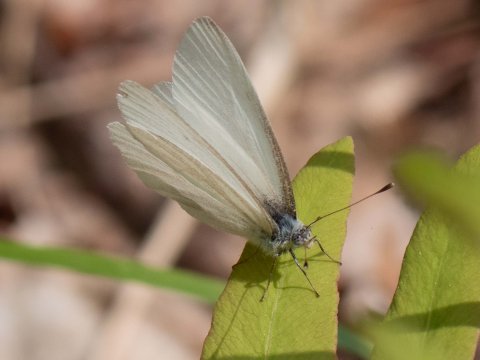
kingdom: Animalia
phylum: Arthropoda
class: Insecta
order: Lepidoptera
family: Pieridae
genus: Pieris
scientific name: Pieris virginiensis
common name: West Virginia White
